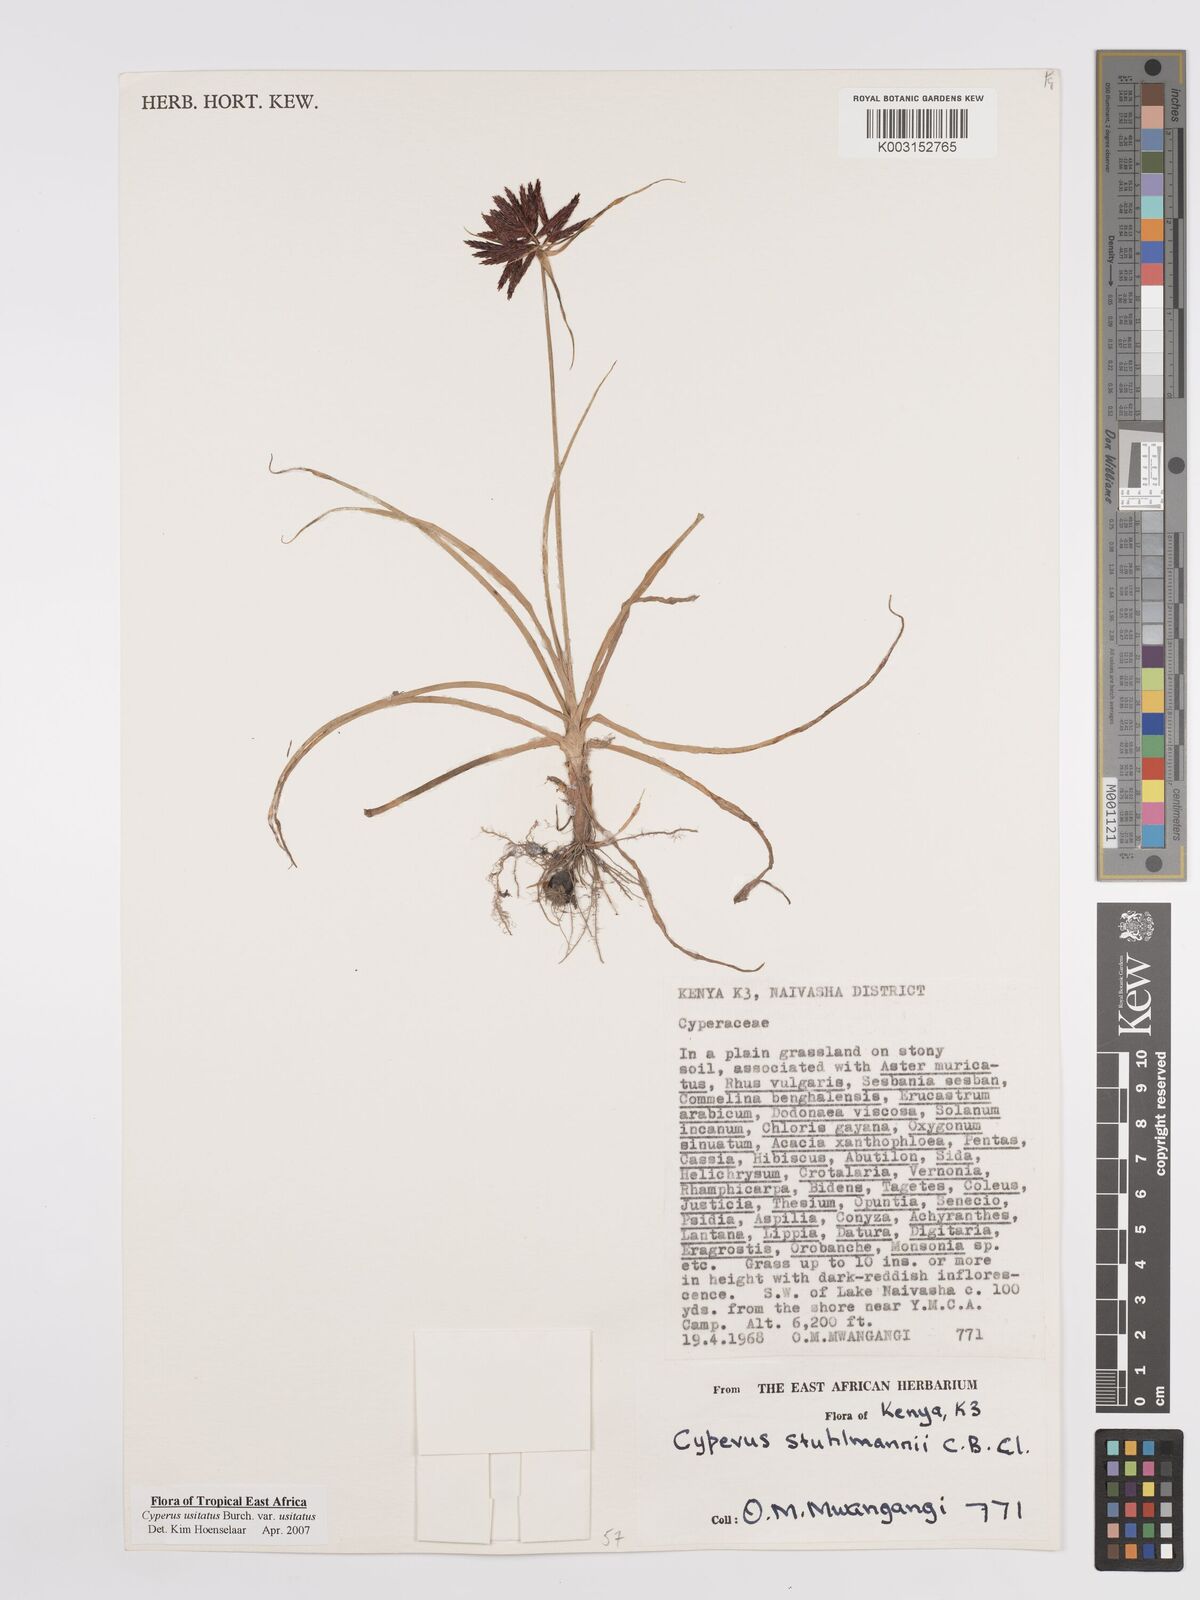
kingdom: Plantae
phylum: Tracheophyta
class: Liliopsida
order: Poales
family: Cyperaceae
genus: Cyperus
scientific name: Cyperus usitatus
